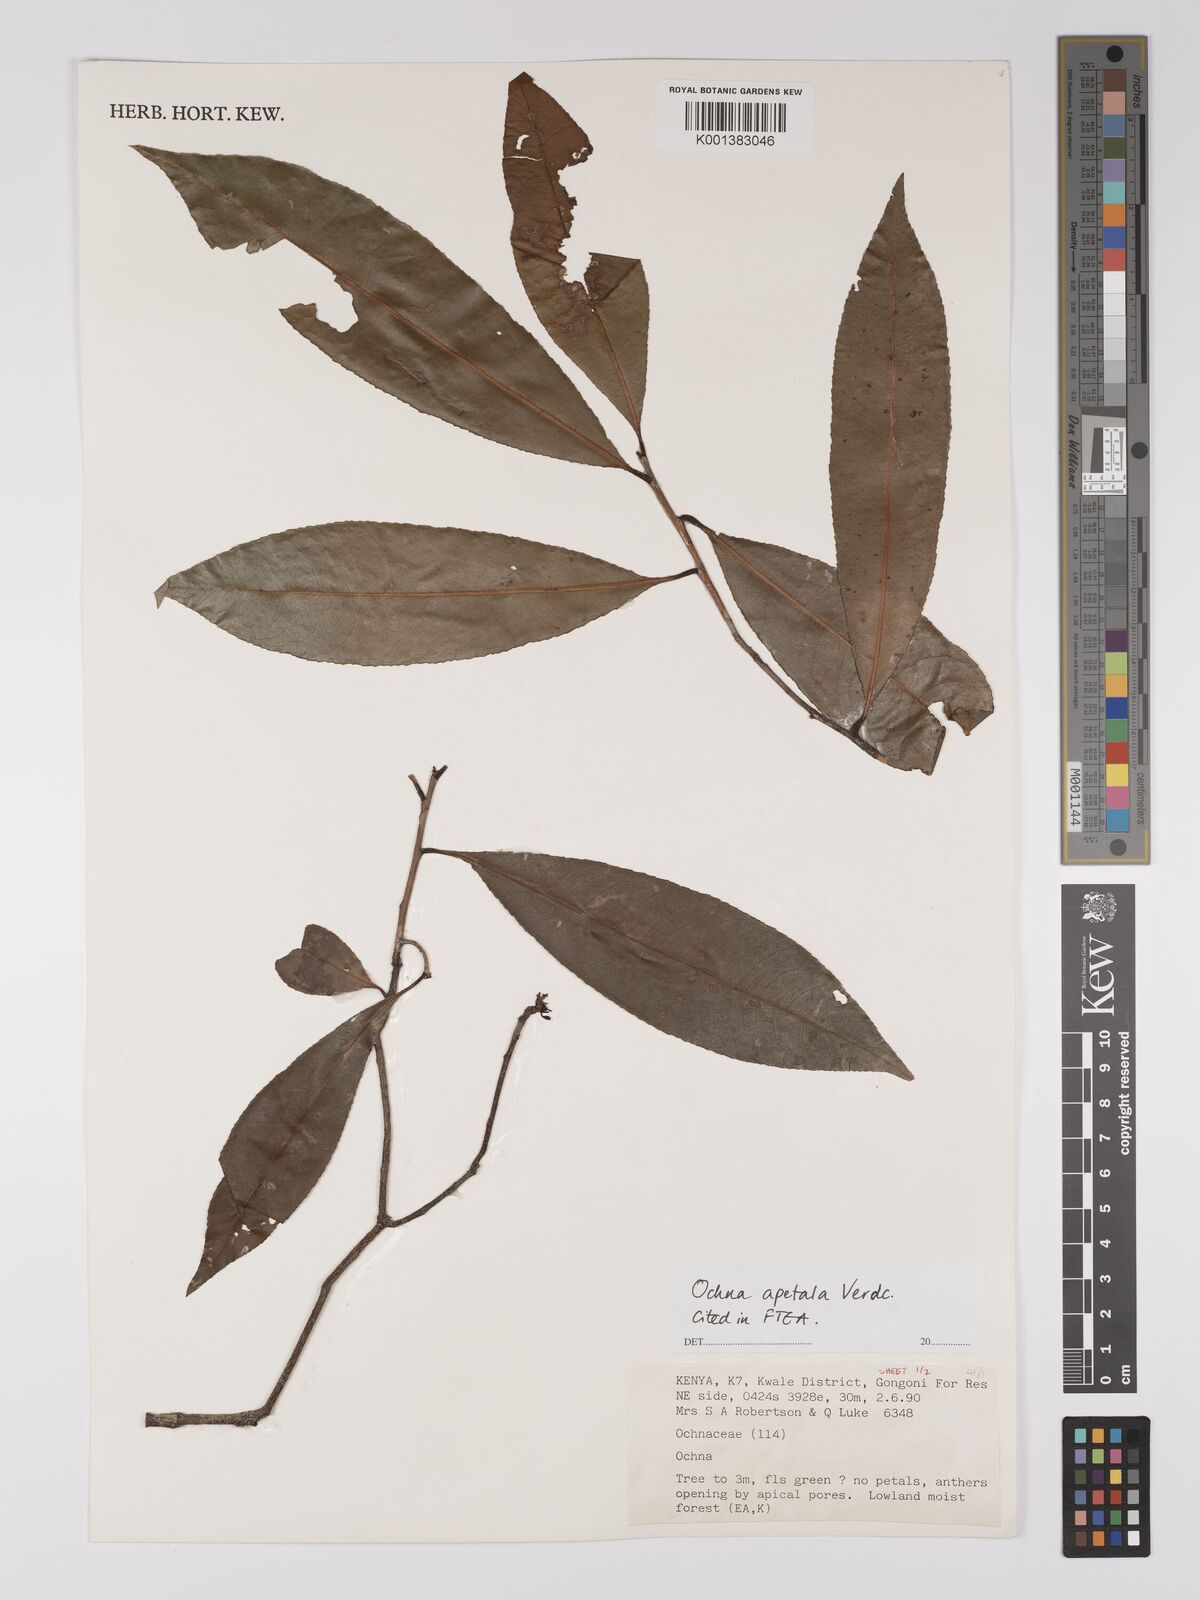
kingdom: Plantae
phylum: Tracheophyta
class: Magnoliopsida
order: Malpighiales
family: Ochnaceae
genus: Ochna
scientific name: Ochna apetala
